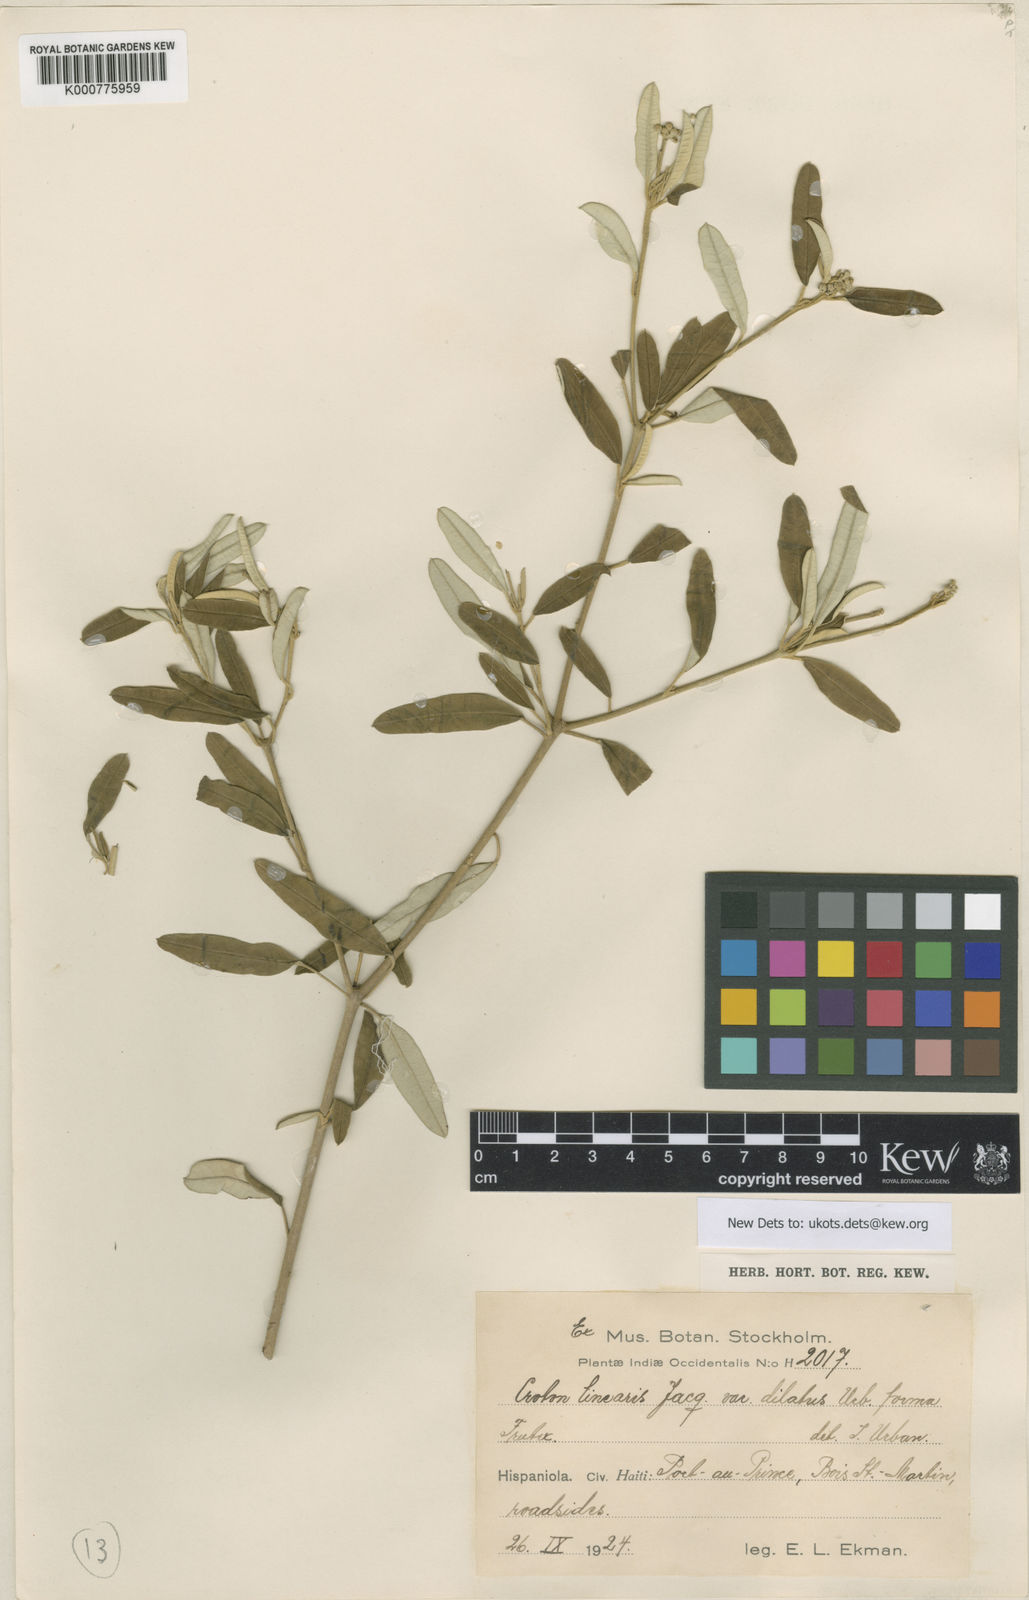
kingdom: Plantae
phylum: Tracheophyta
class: Magnoliopsida
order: Malpighiales
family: Euphorbiaceae
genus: Croton
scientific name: Croton linearis
